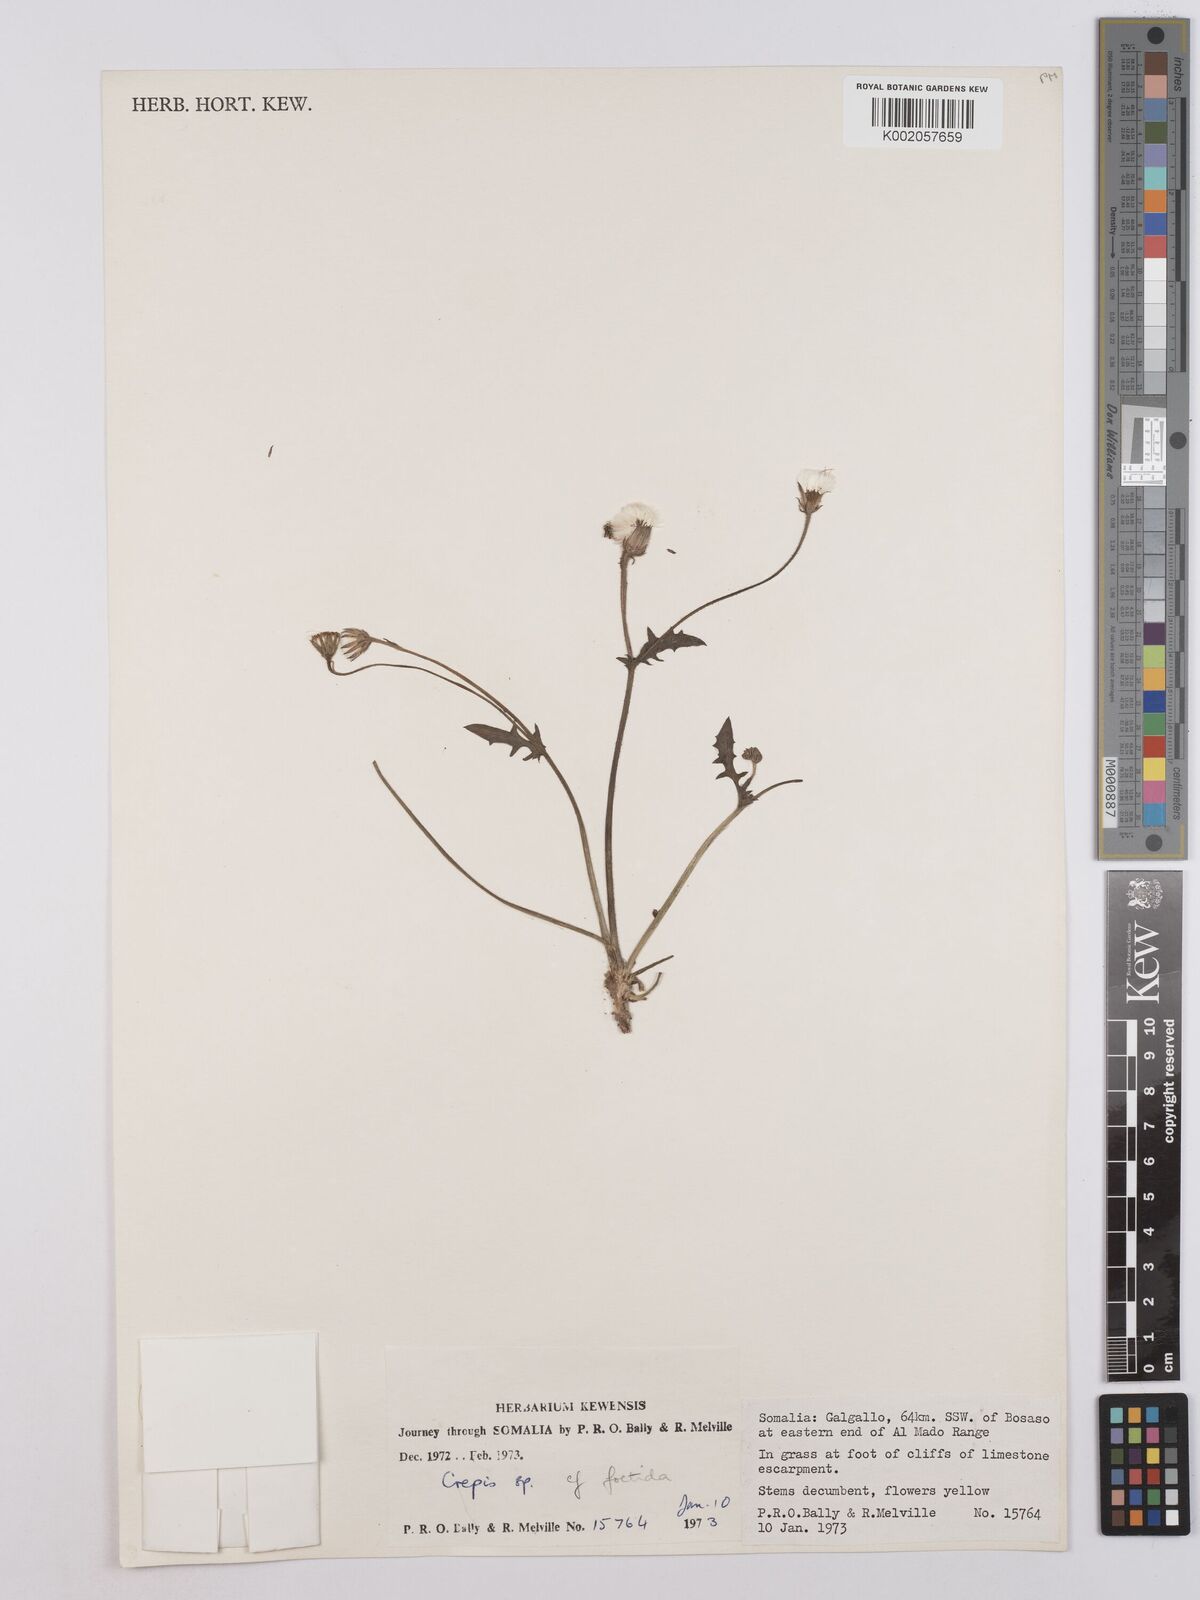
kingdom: Plantae
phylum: Tracheophyta
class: Magnoliopsida
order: Asterales
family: Asteraceae
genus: Crepis
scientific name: Crepis foetida
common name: Stinking hawk's-beard
